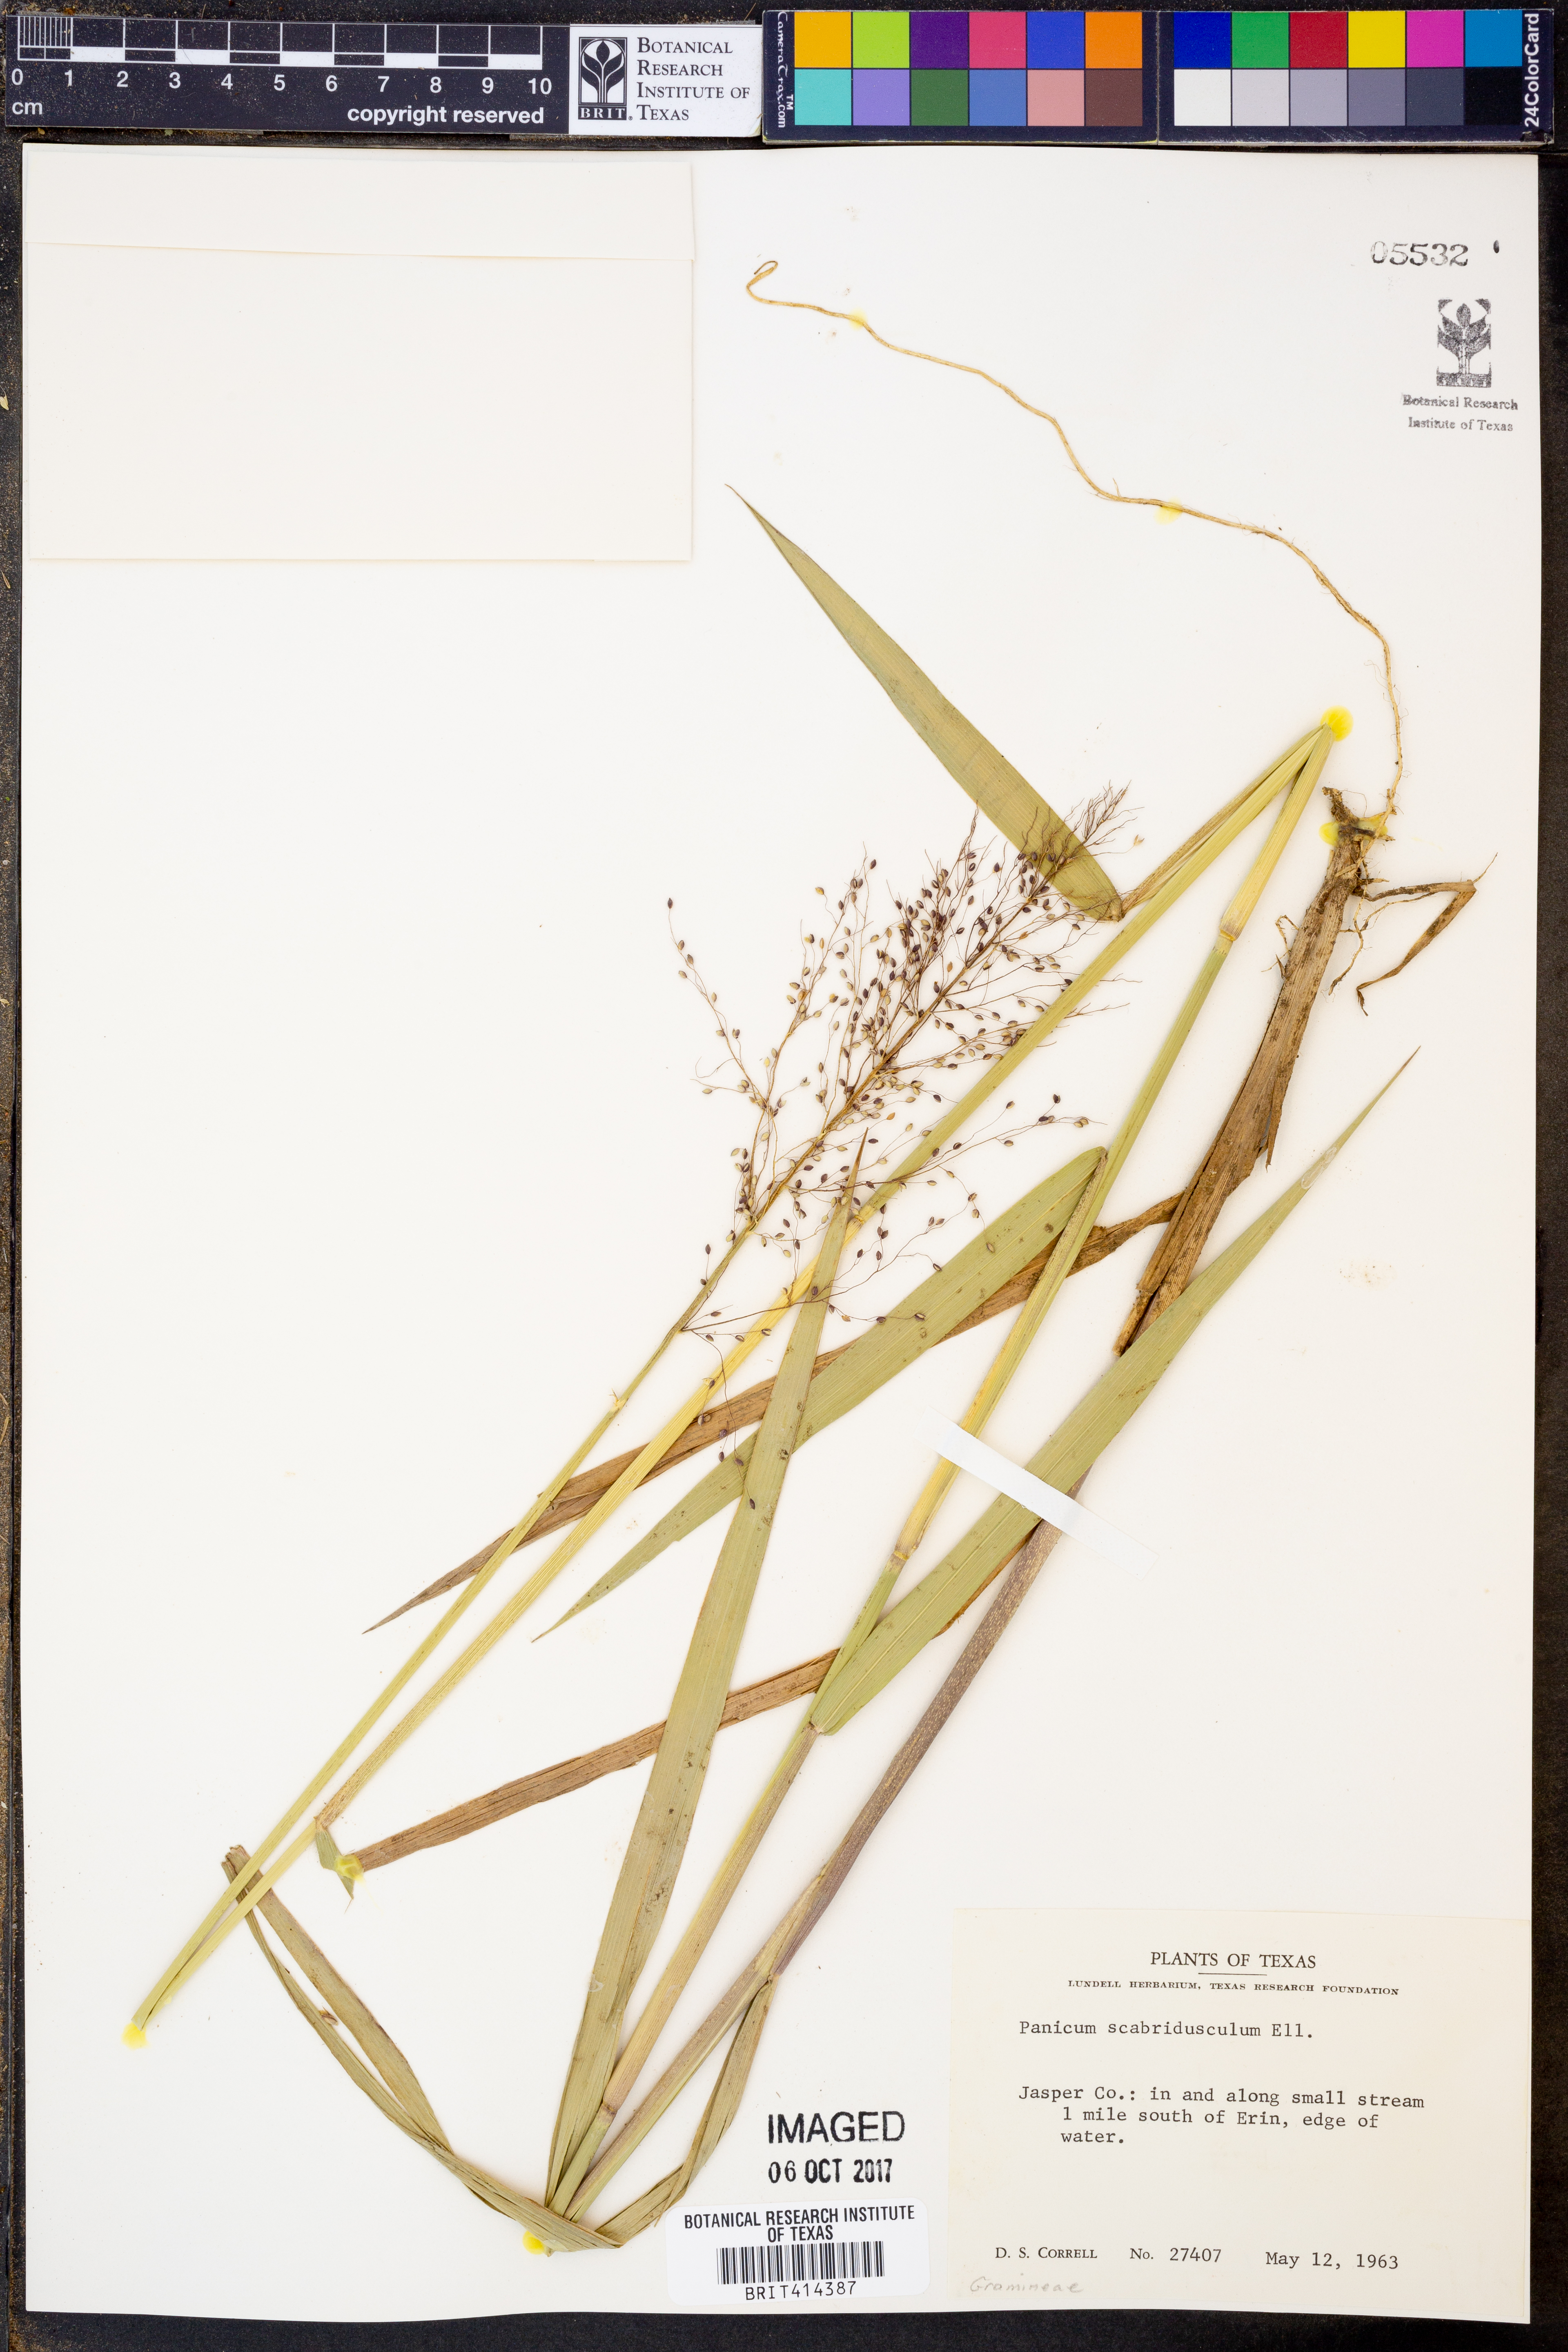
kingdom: Plantae
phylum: Tracheophyta
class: Liliopsida
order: Poales
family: Poaceae
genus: Dichanthelium
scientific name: Dichanthelium scabriusculum
